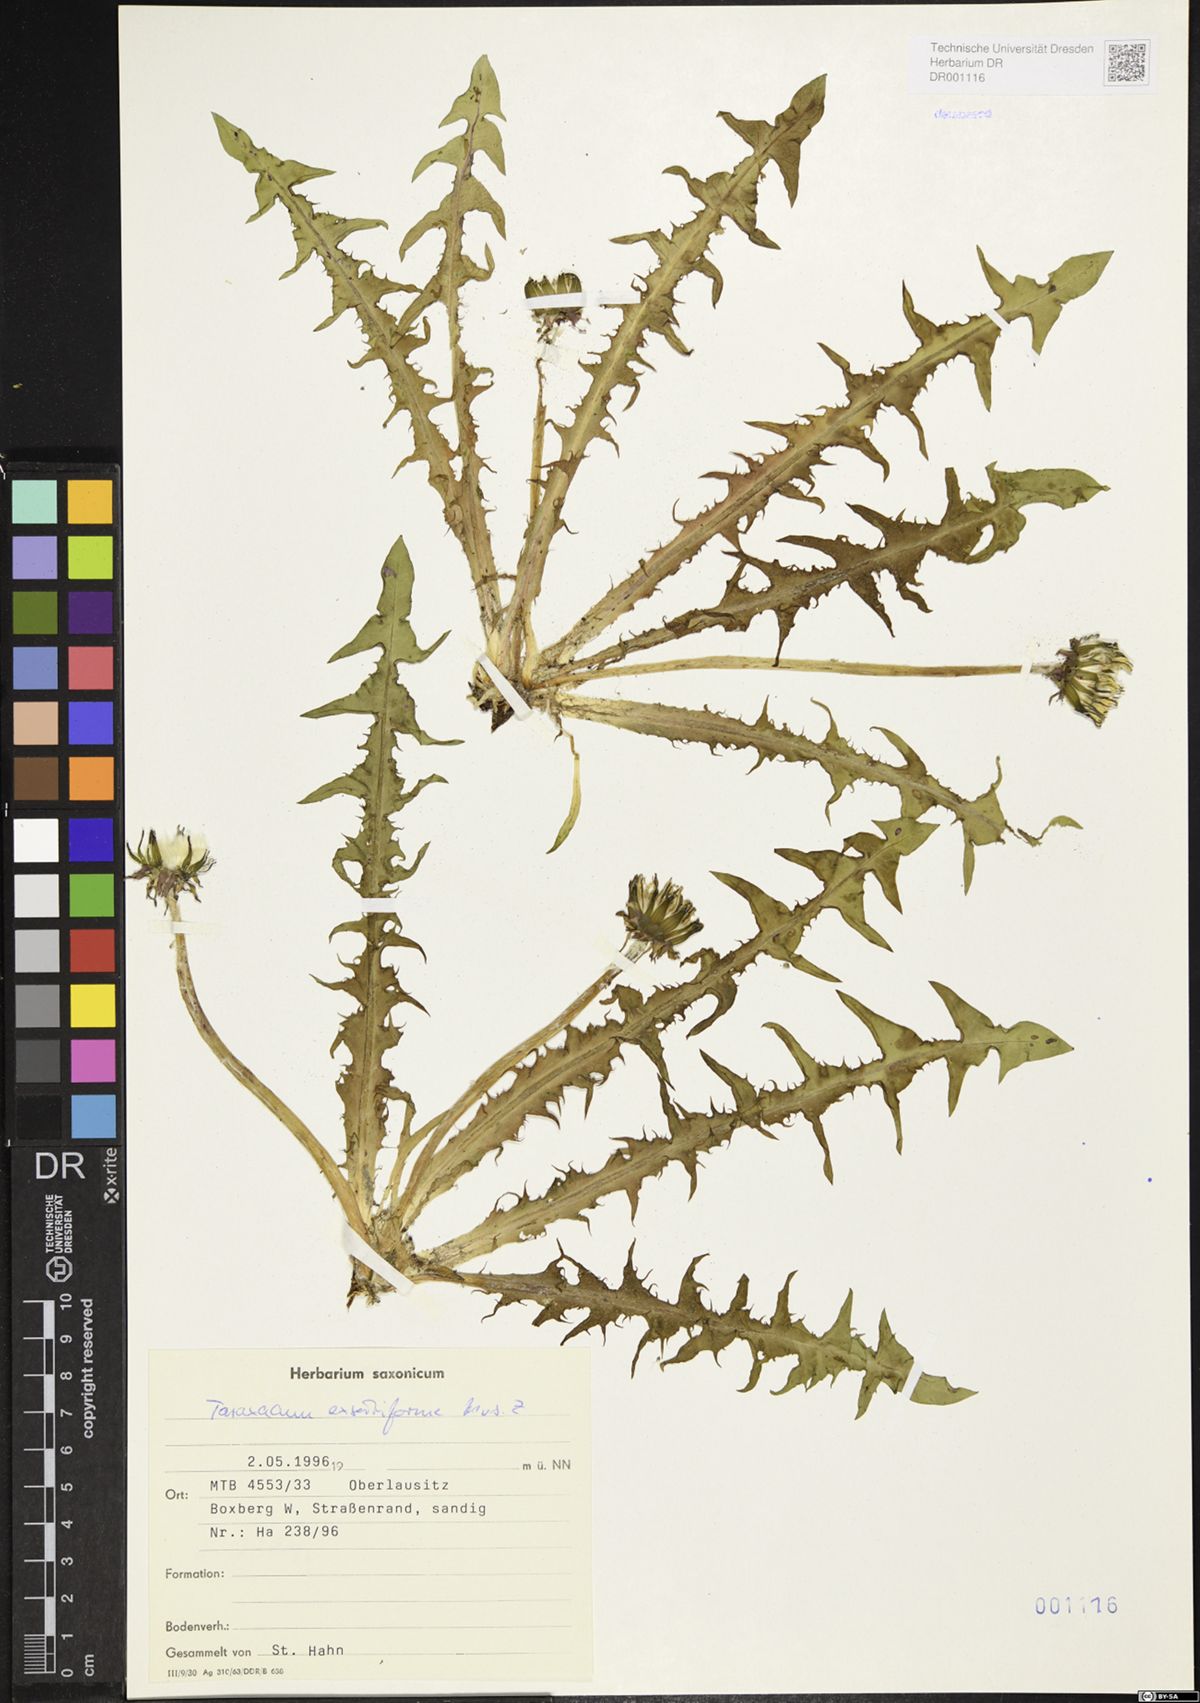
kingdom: Plantae
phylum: Tracheophyta
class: Magnoliopsida
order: Asterales
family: Asteraceae
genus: Taraxacum
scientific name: Taraxacum exsertiforme
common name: Erect-bracted dandelion
